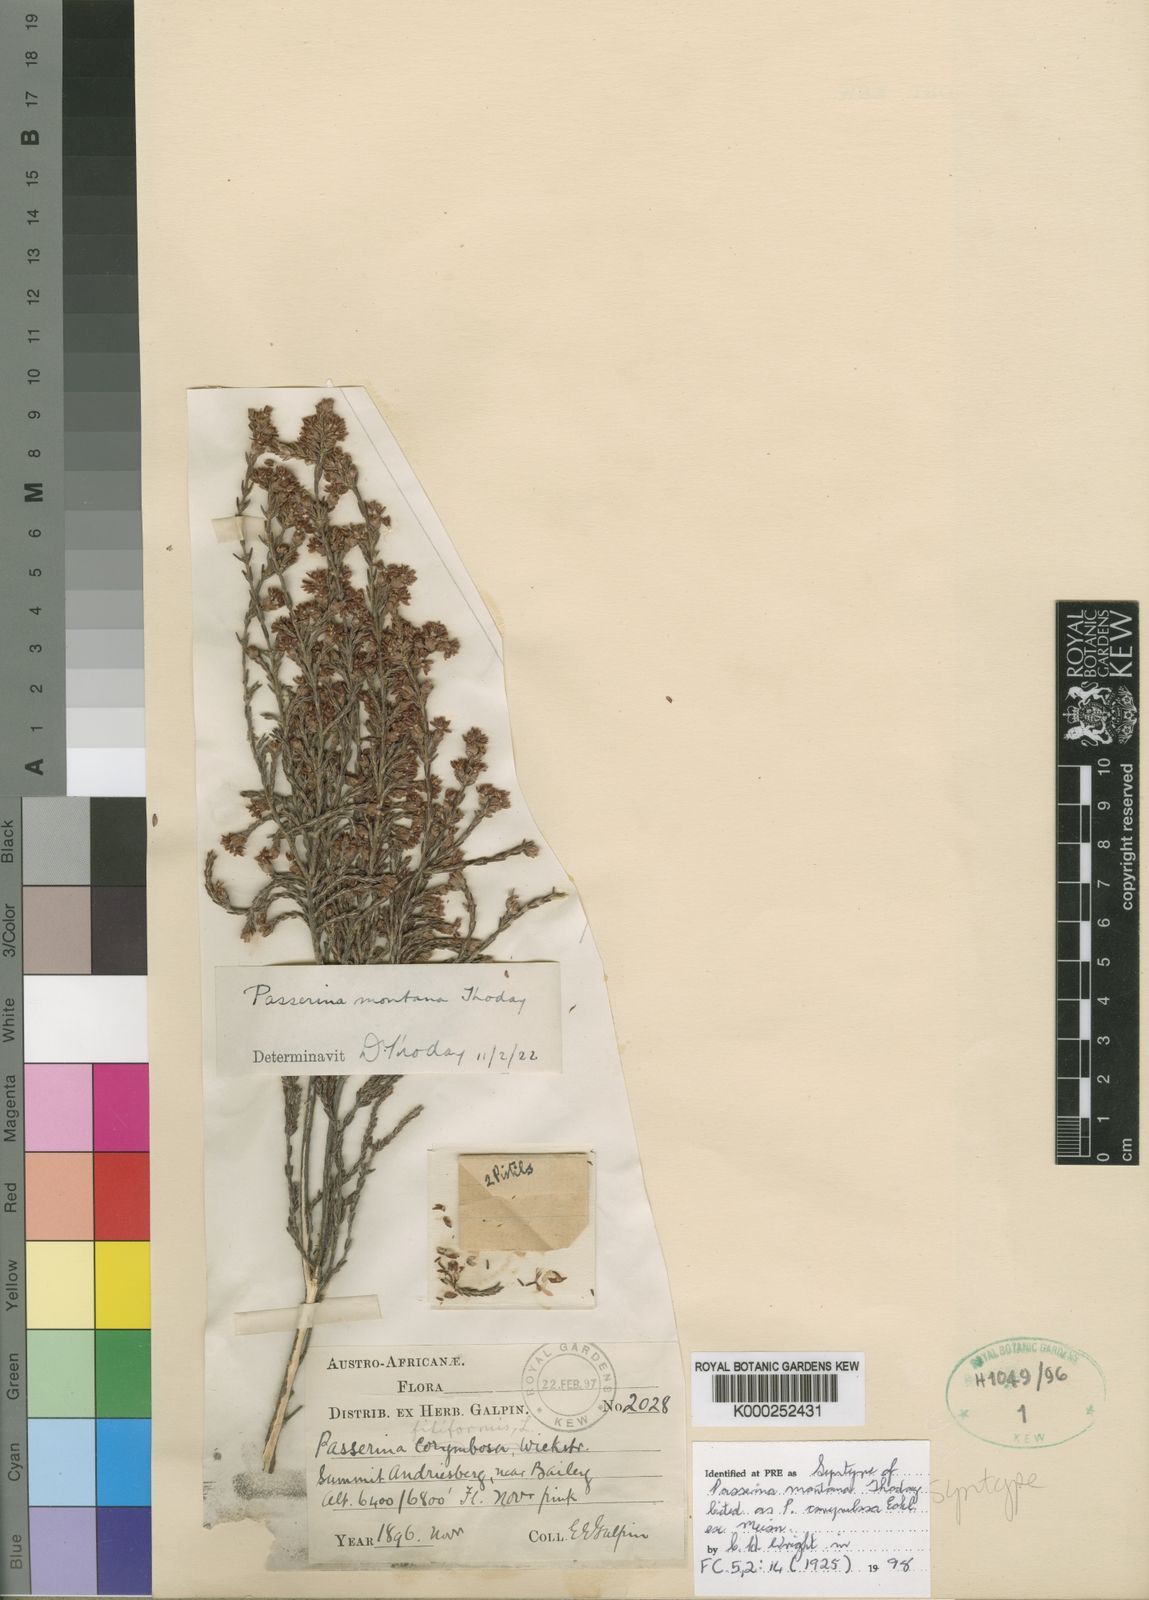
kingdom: Plantae
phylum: Tracheophyta
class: Magnoliopsida
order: Malvales
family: Thymelaeaceae
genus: Passerina
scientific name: Passerina montana
